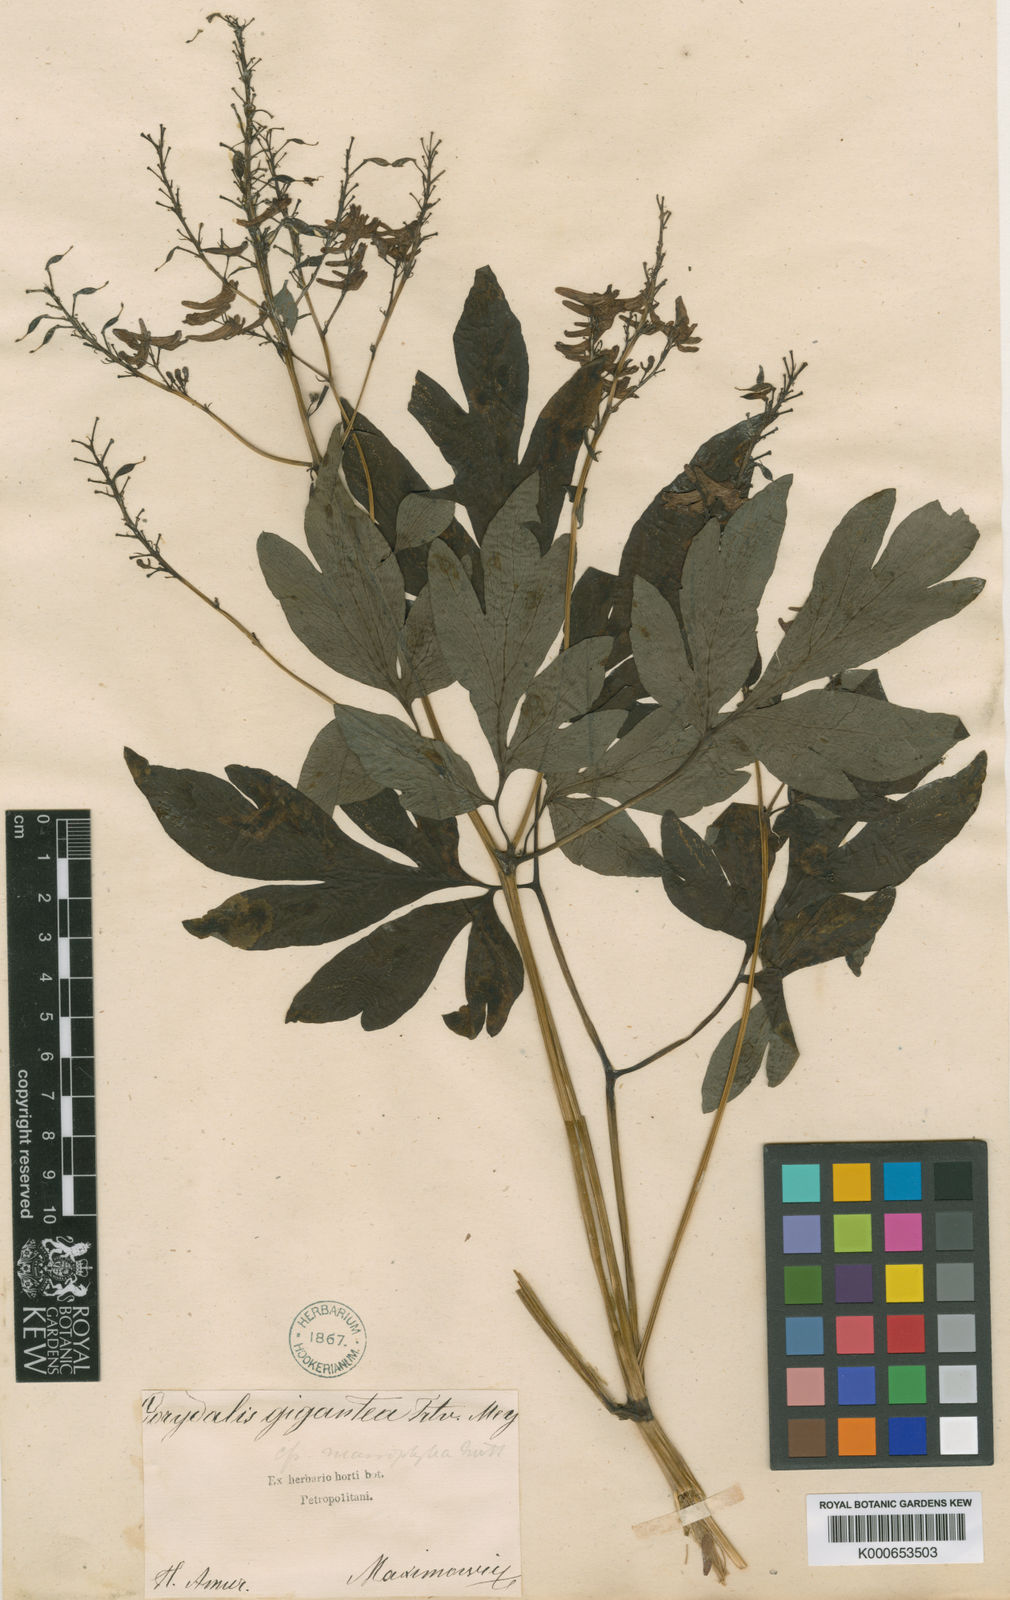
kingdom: Plantae
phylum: Tracheophyta
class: Magnoliopsida
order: Ranunculales
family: Papaveraceae
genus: Corydalis
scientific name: Corydalis gigantea
